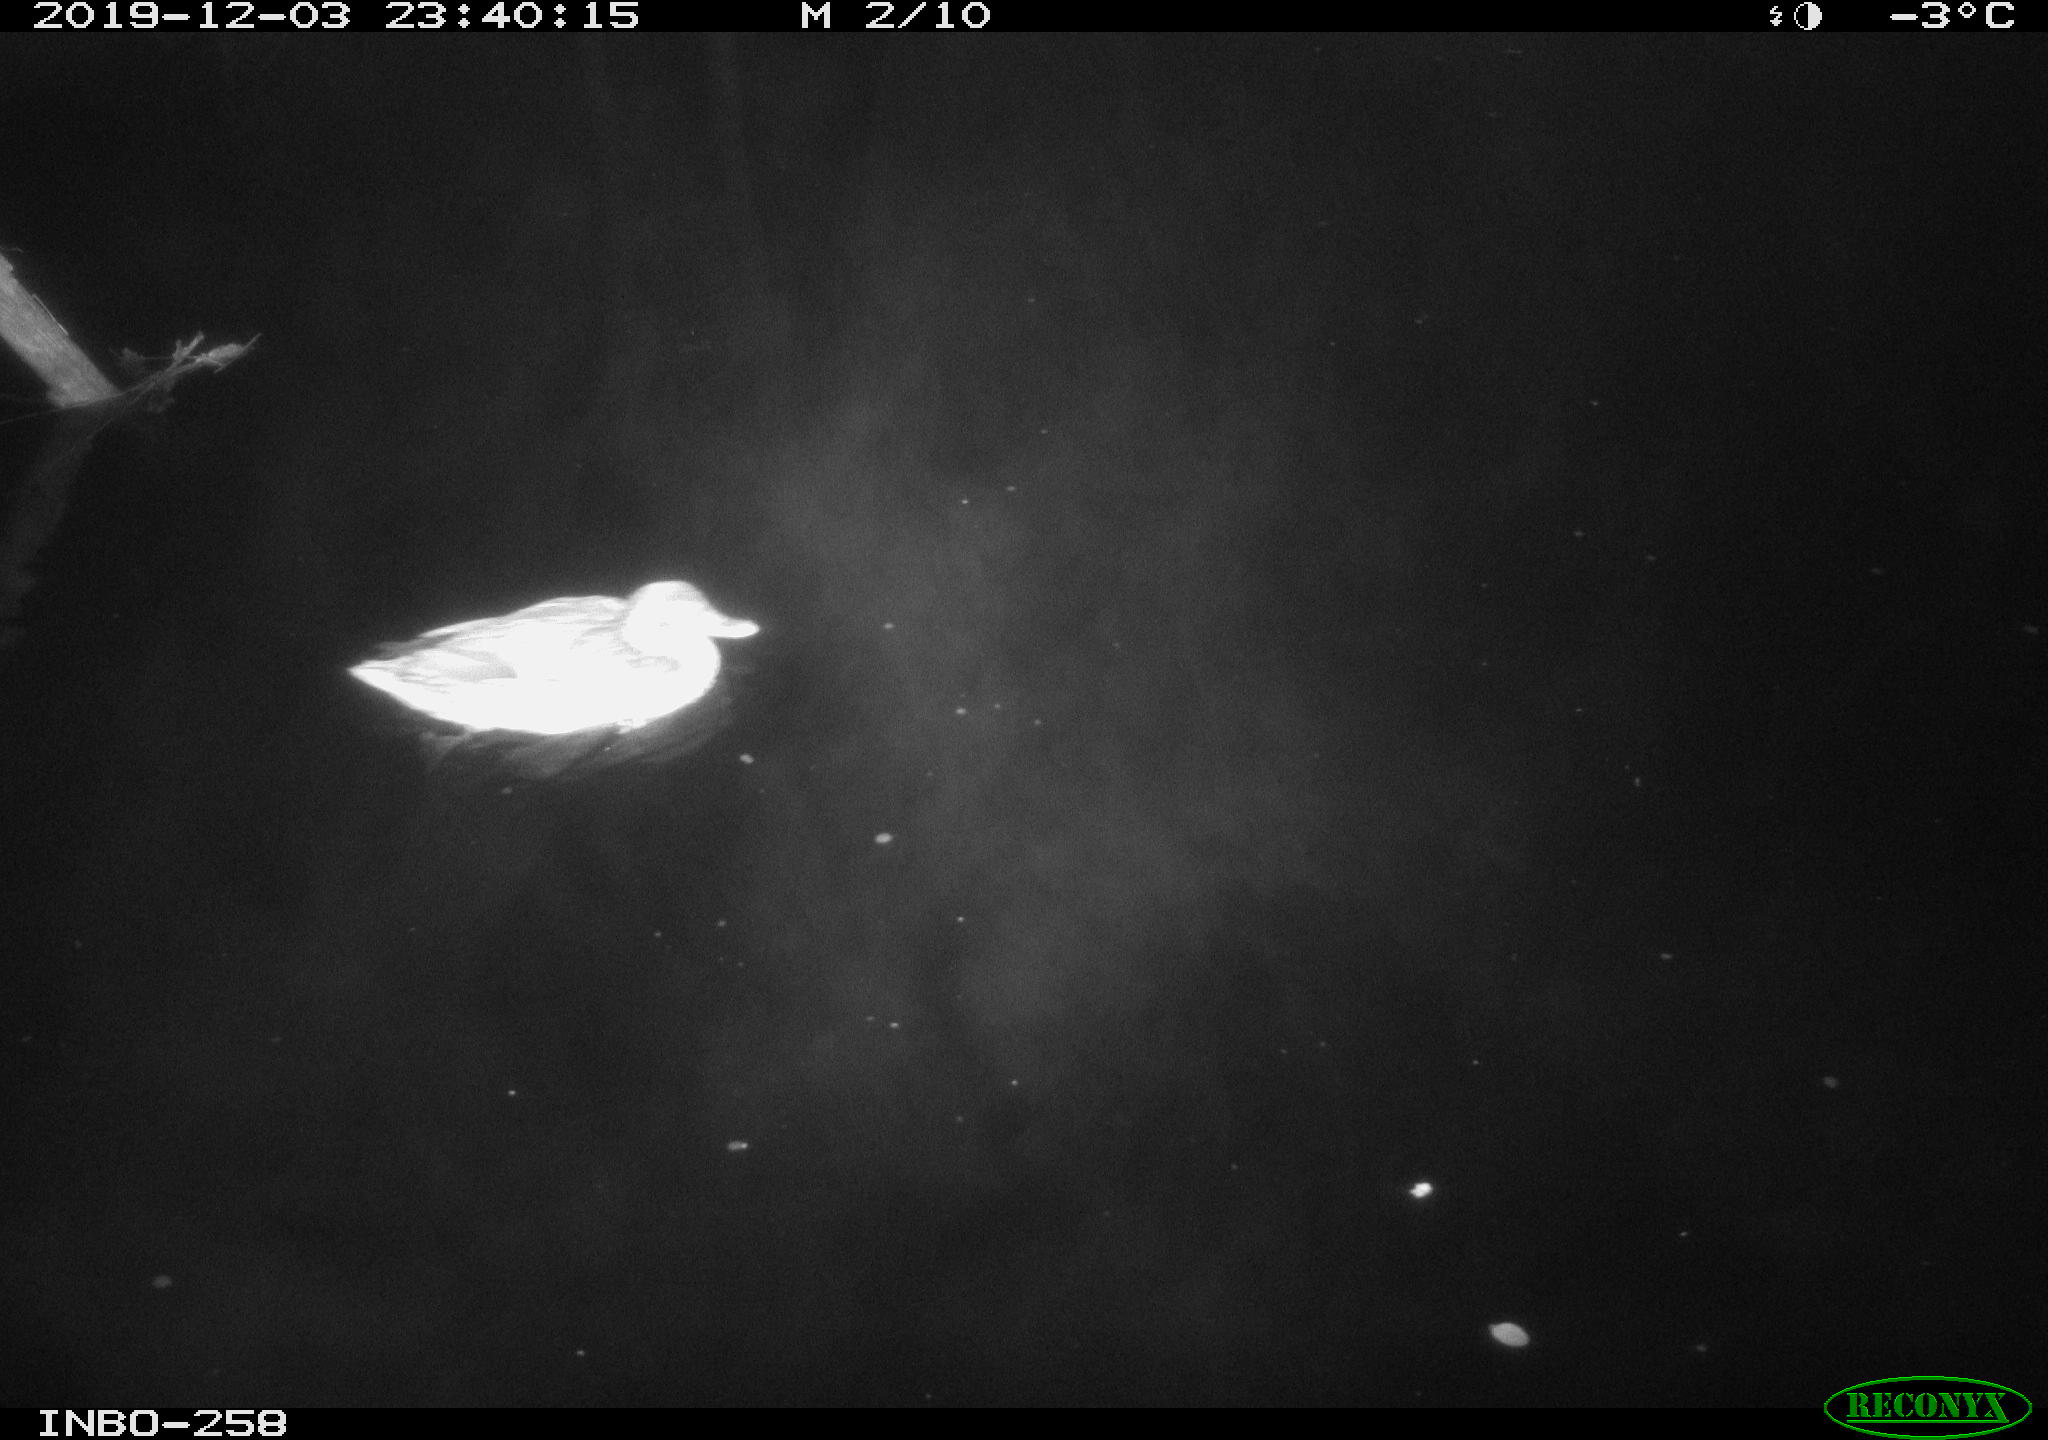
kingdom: Animalia
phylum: Chordata
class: Aves
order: Anseriformes
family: Anatidae
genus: Anas
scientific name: Anas platyrhynchos
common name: Mallard
